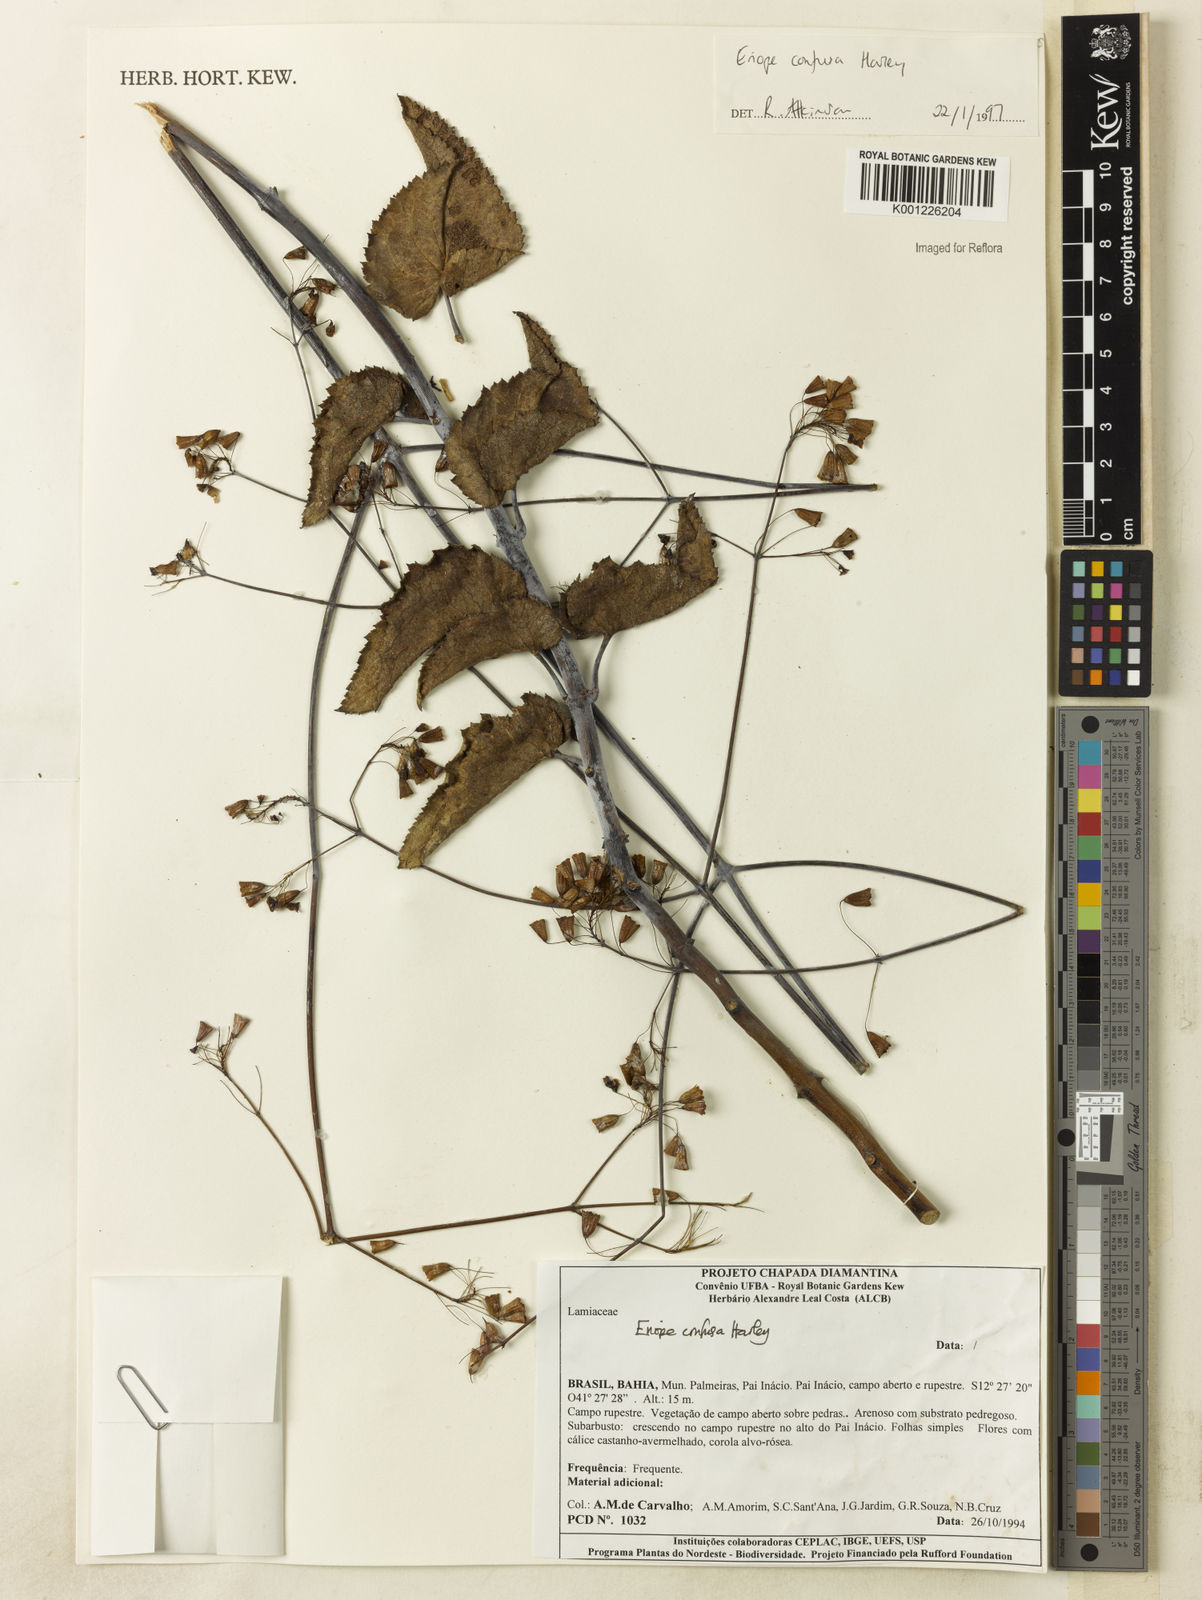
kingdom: Plantae
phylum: Tracheophyta
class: Magnoliopsida
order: Lamiales
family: Lamiaceae
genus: Eriope
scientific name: Eriope confusa
